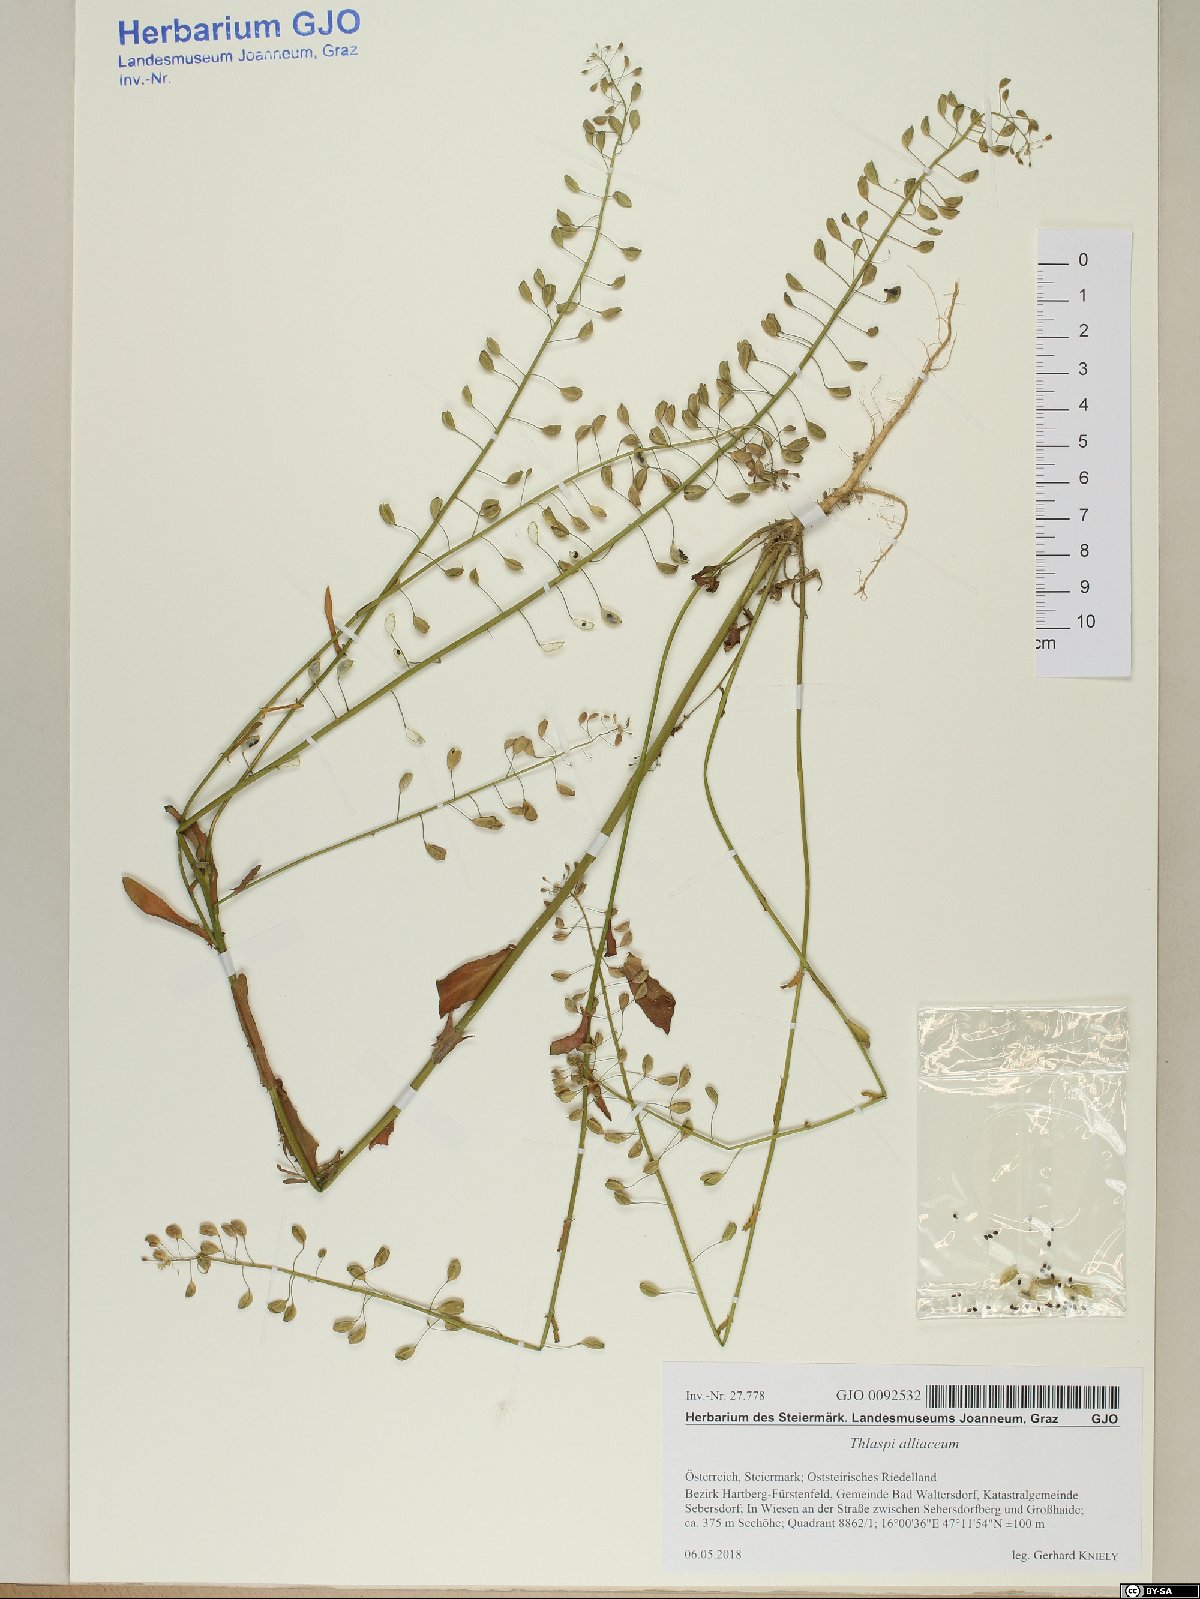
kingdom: Plantae
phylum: Tracheophyta
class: Magnoliopsida
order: Brassicales
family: Brassicaceae
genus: Mummenhoffia
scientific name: Mummenhoffia alliacea
